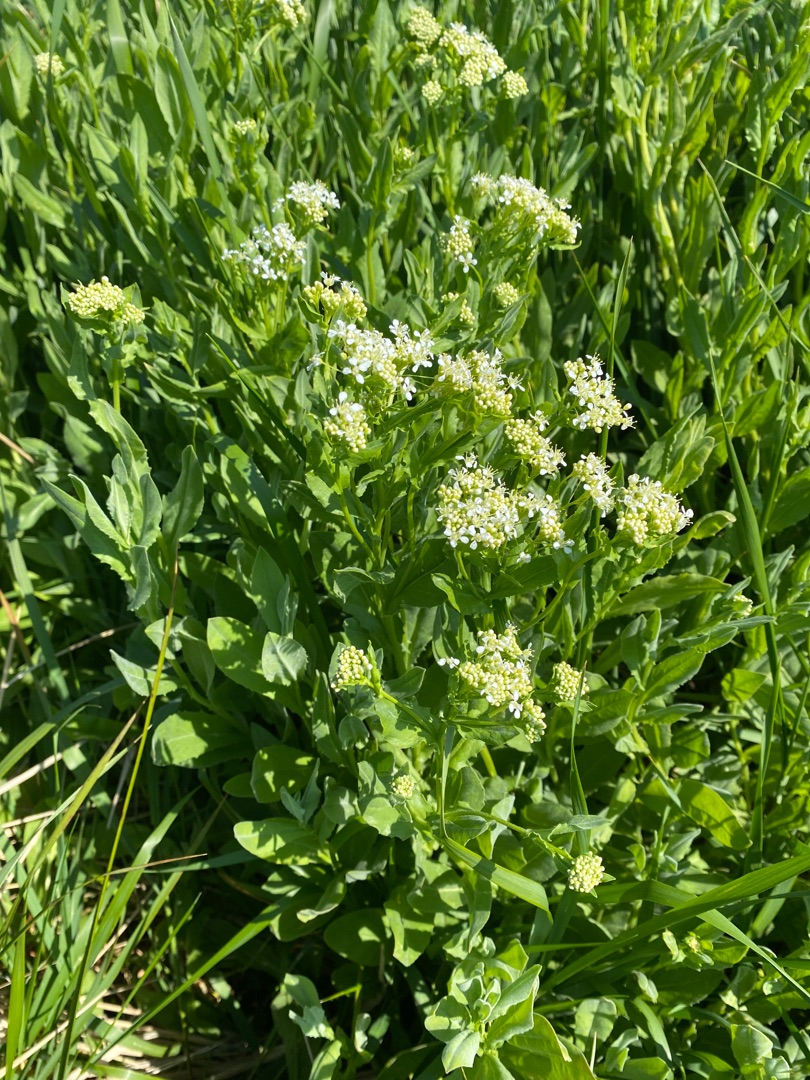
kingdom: Plantae
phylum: Tracheophyta
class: Magnoliopsida
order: Brassicales
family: Brassicaceae
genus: Lepidium
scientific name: Lepidium draba
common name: Hjerte-karse
